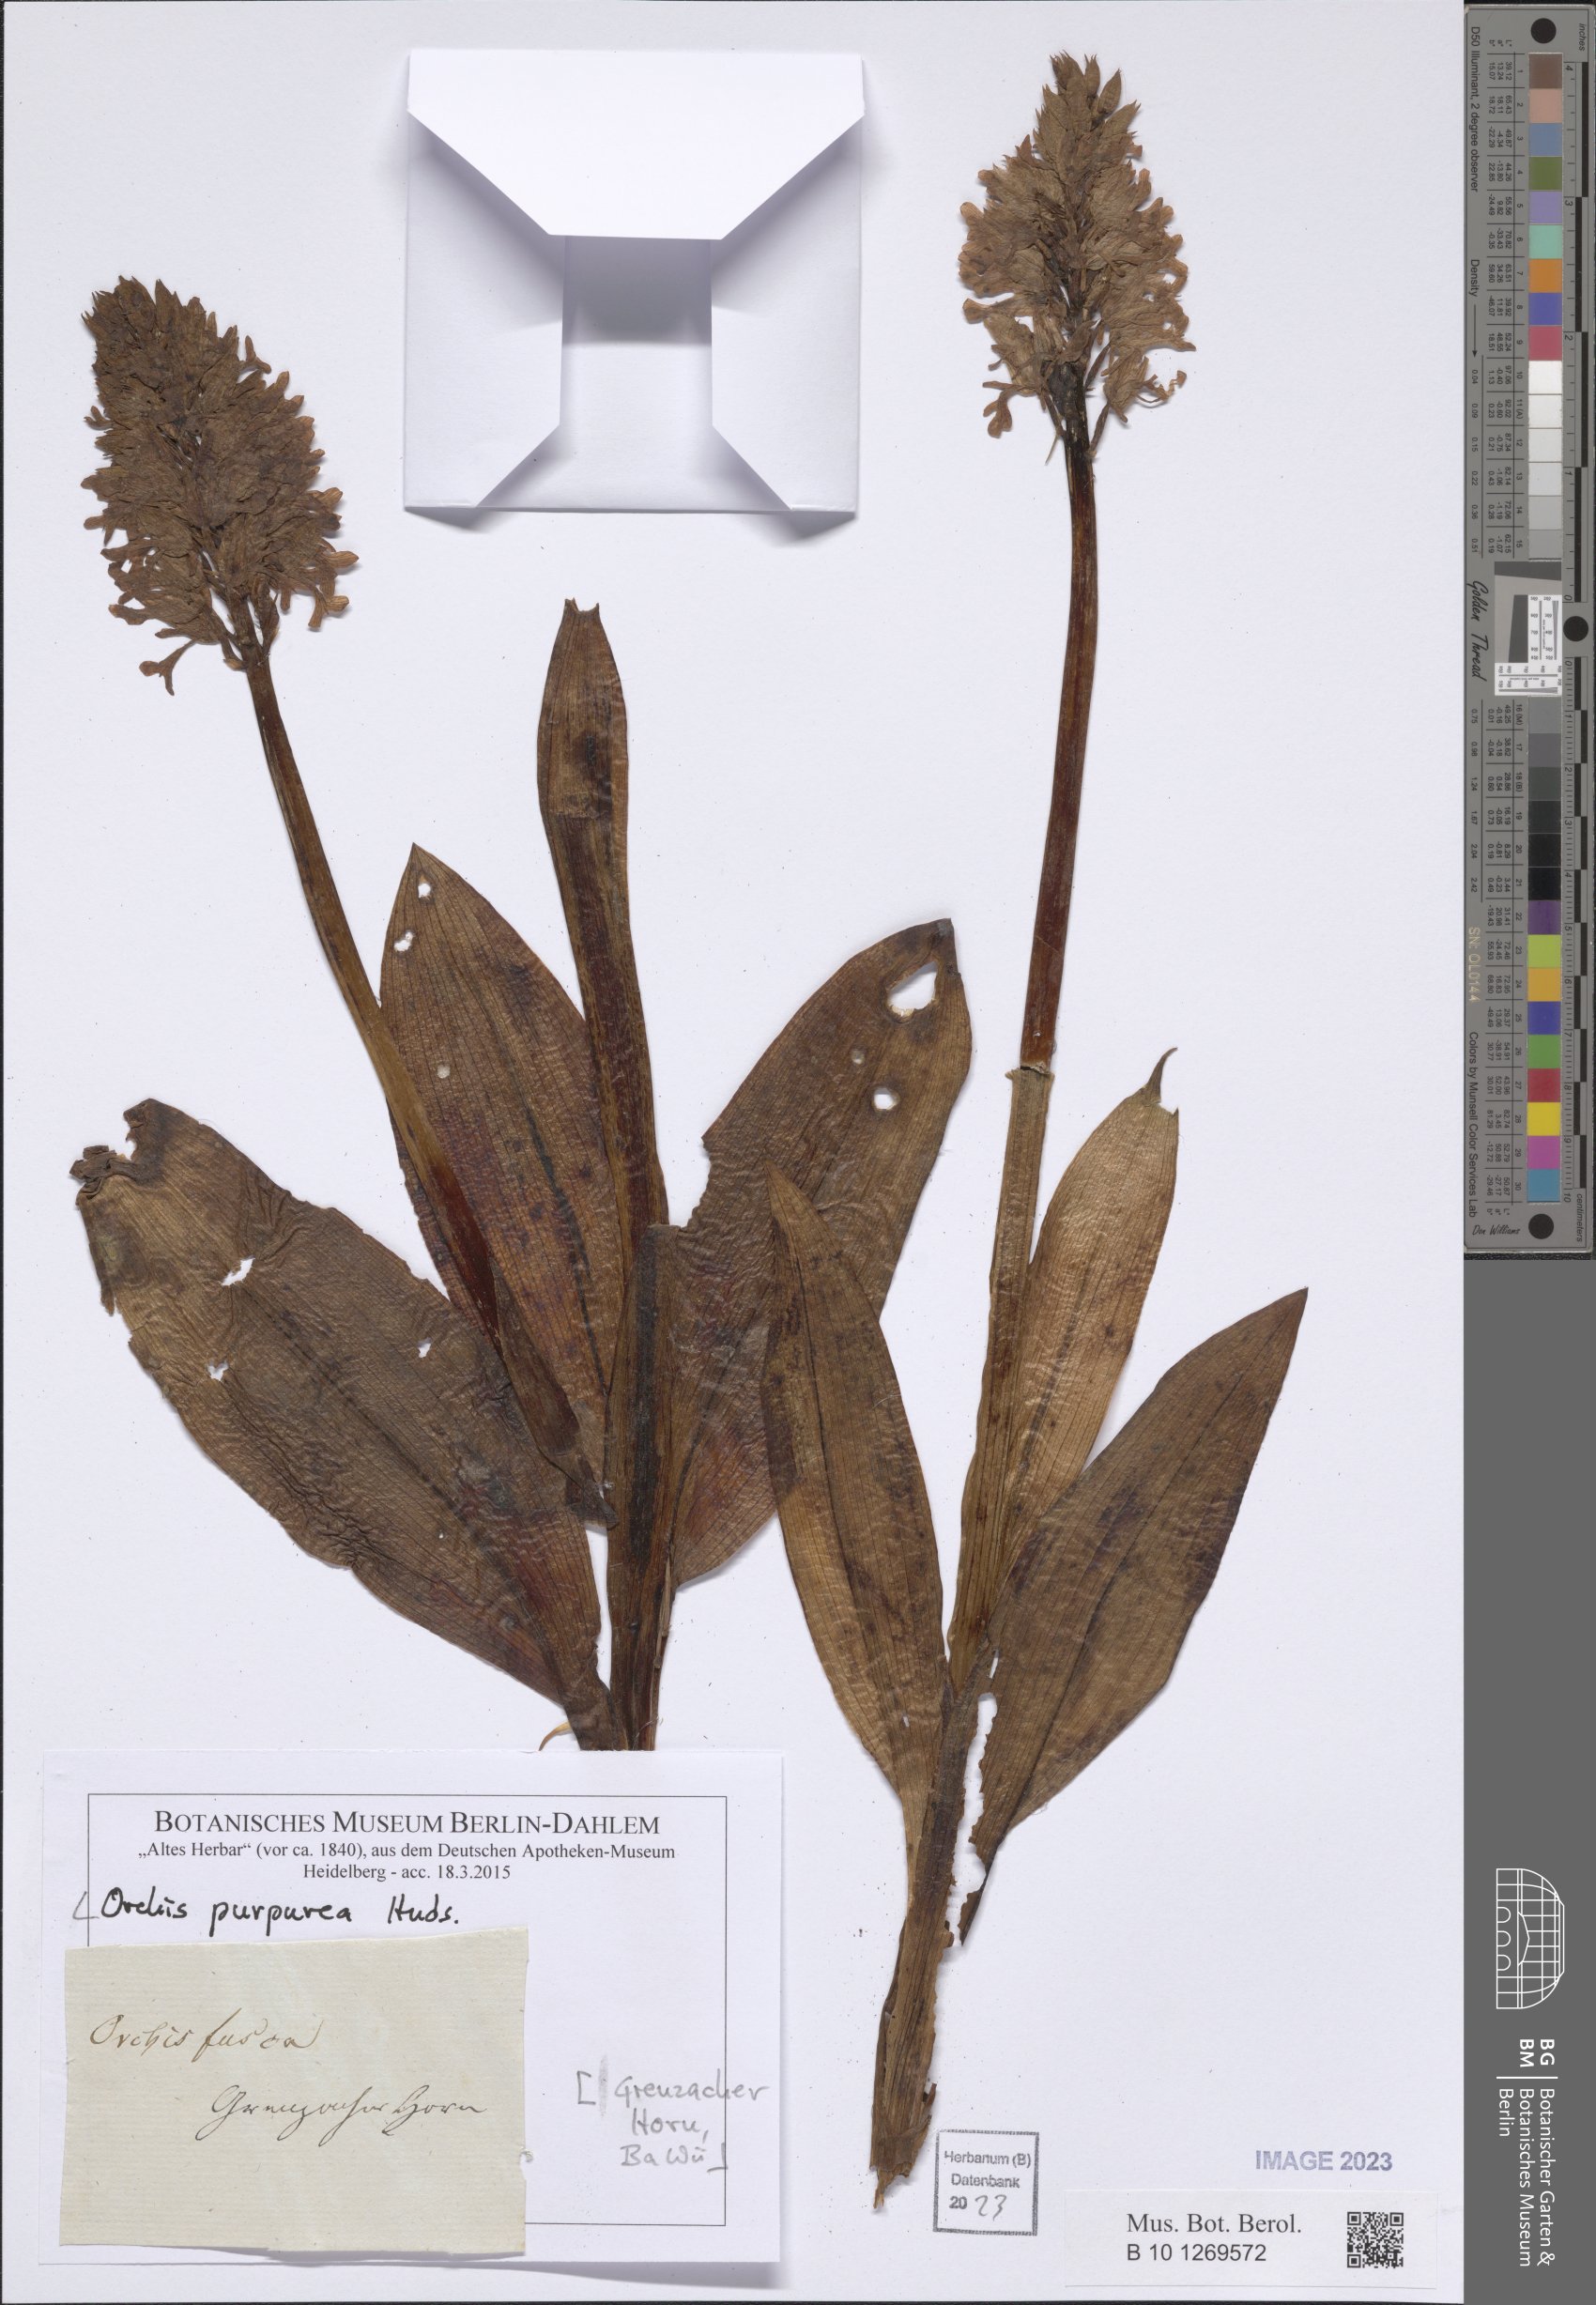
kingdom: Plantae
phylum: Tracheophyta
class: Liliopsida
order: Asparagales
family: Orchidaceae
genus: Orchis
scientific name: Orchis purpurea
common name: Lady orchid
